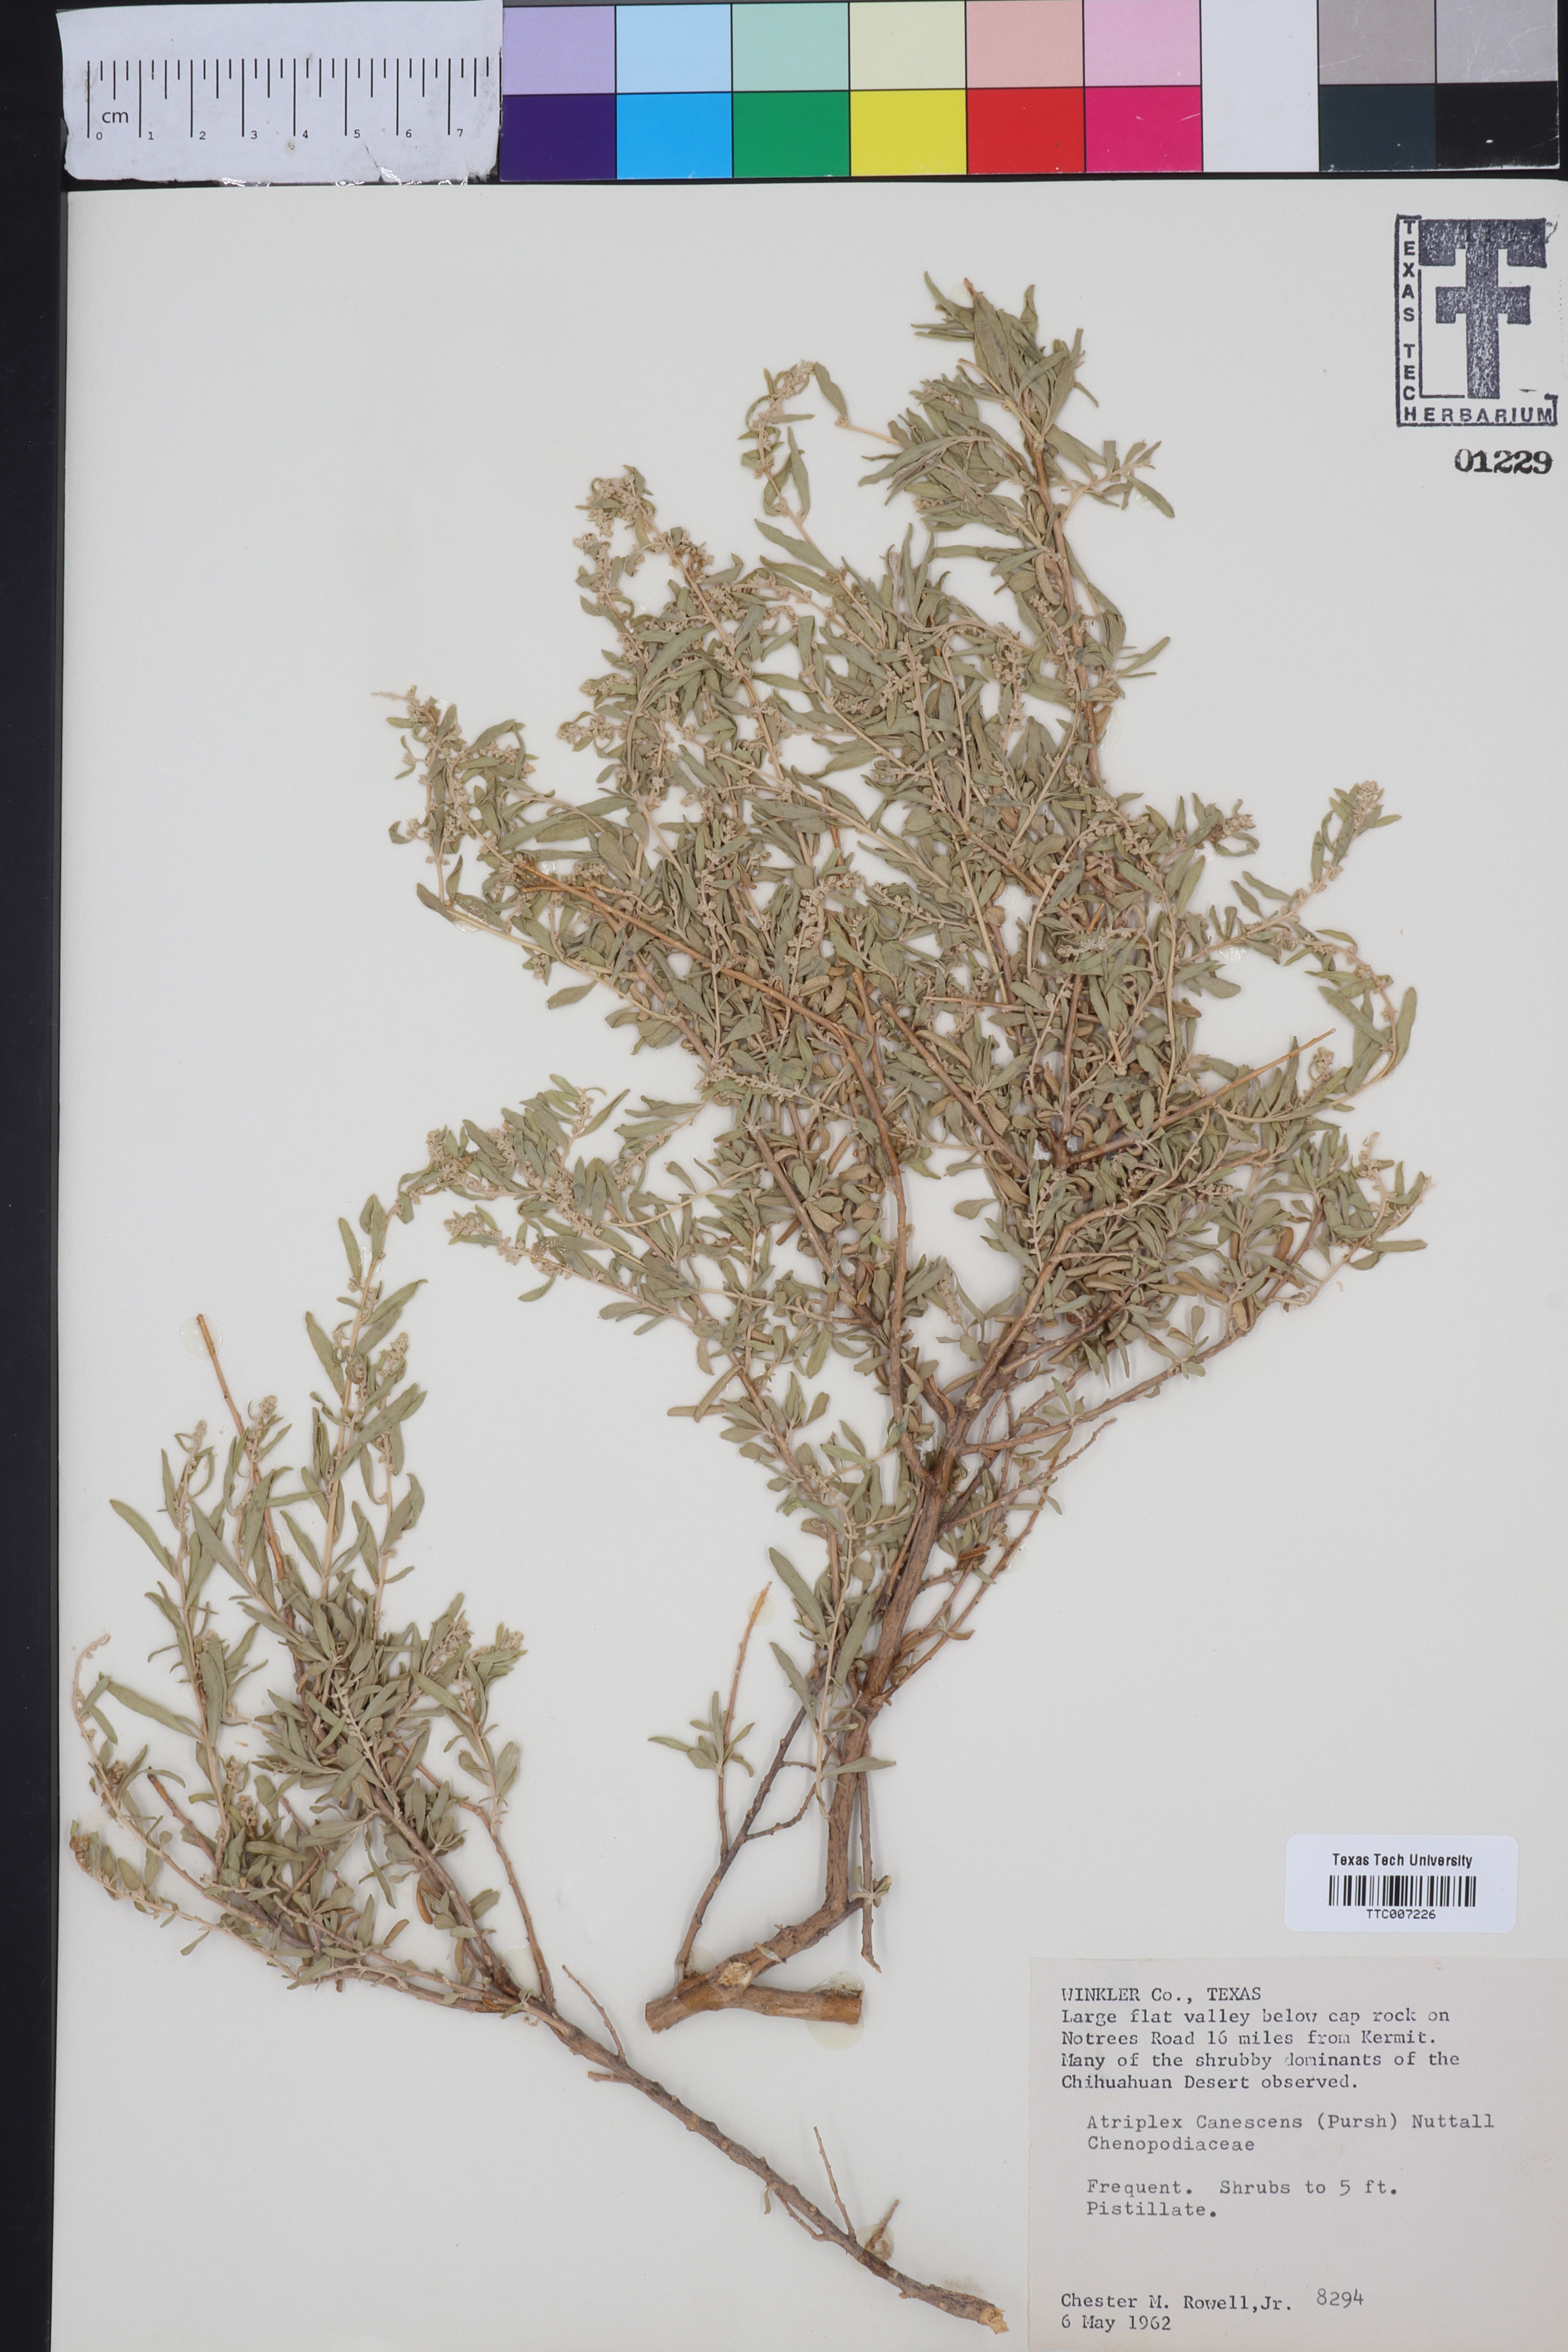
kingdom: Plantae
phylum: Tracheophyta
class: Magnoliopsida
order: Caryophyllales
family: Amaranthaceae
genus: Atriplex
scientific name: Atriplex canescens
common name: Four-wing saltbush
